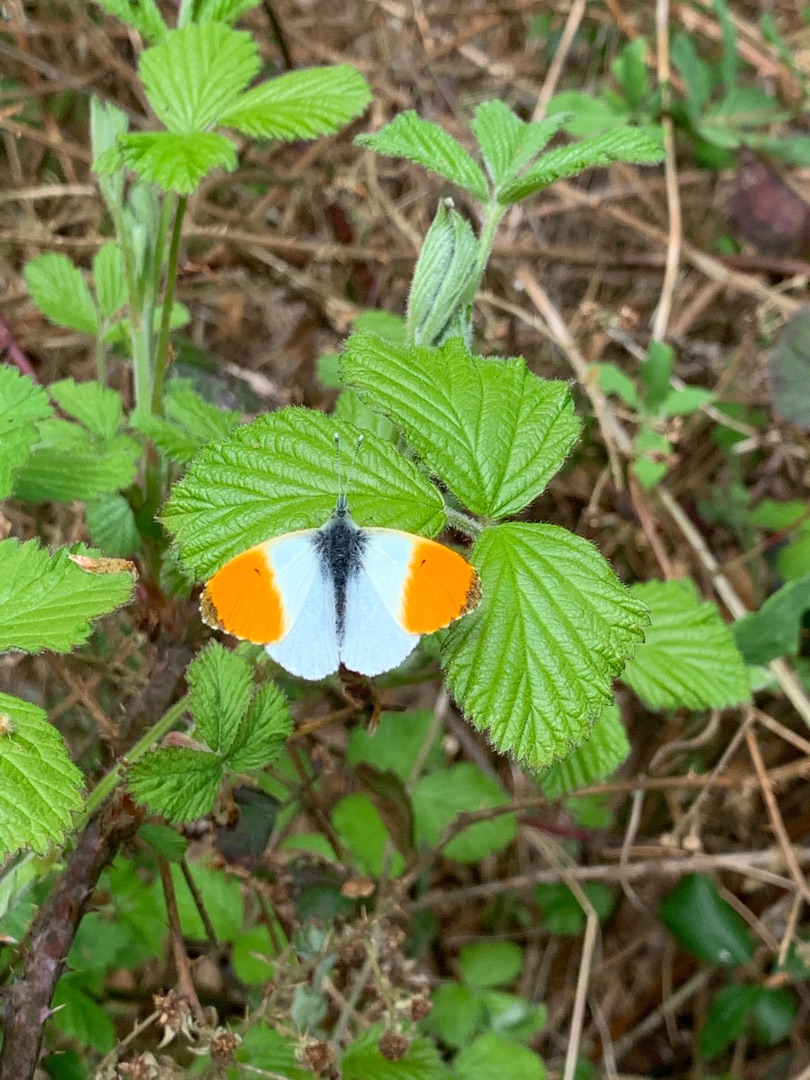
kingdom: Animalia
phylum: Arthropoda
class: Insecta
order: Lepidoptera
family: Pieridae
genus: Anthocharis
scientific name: Anthocharis cardamines
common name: Aurora
